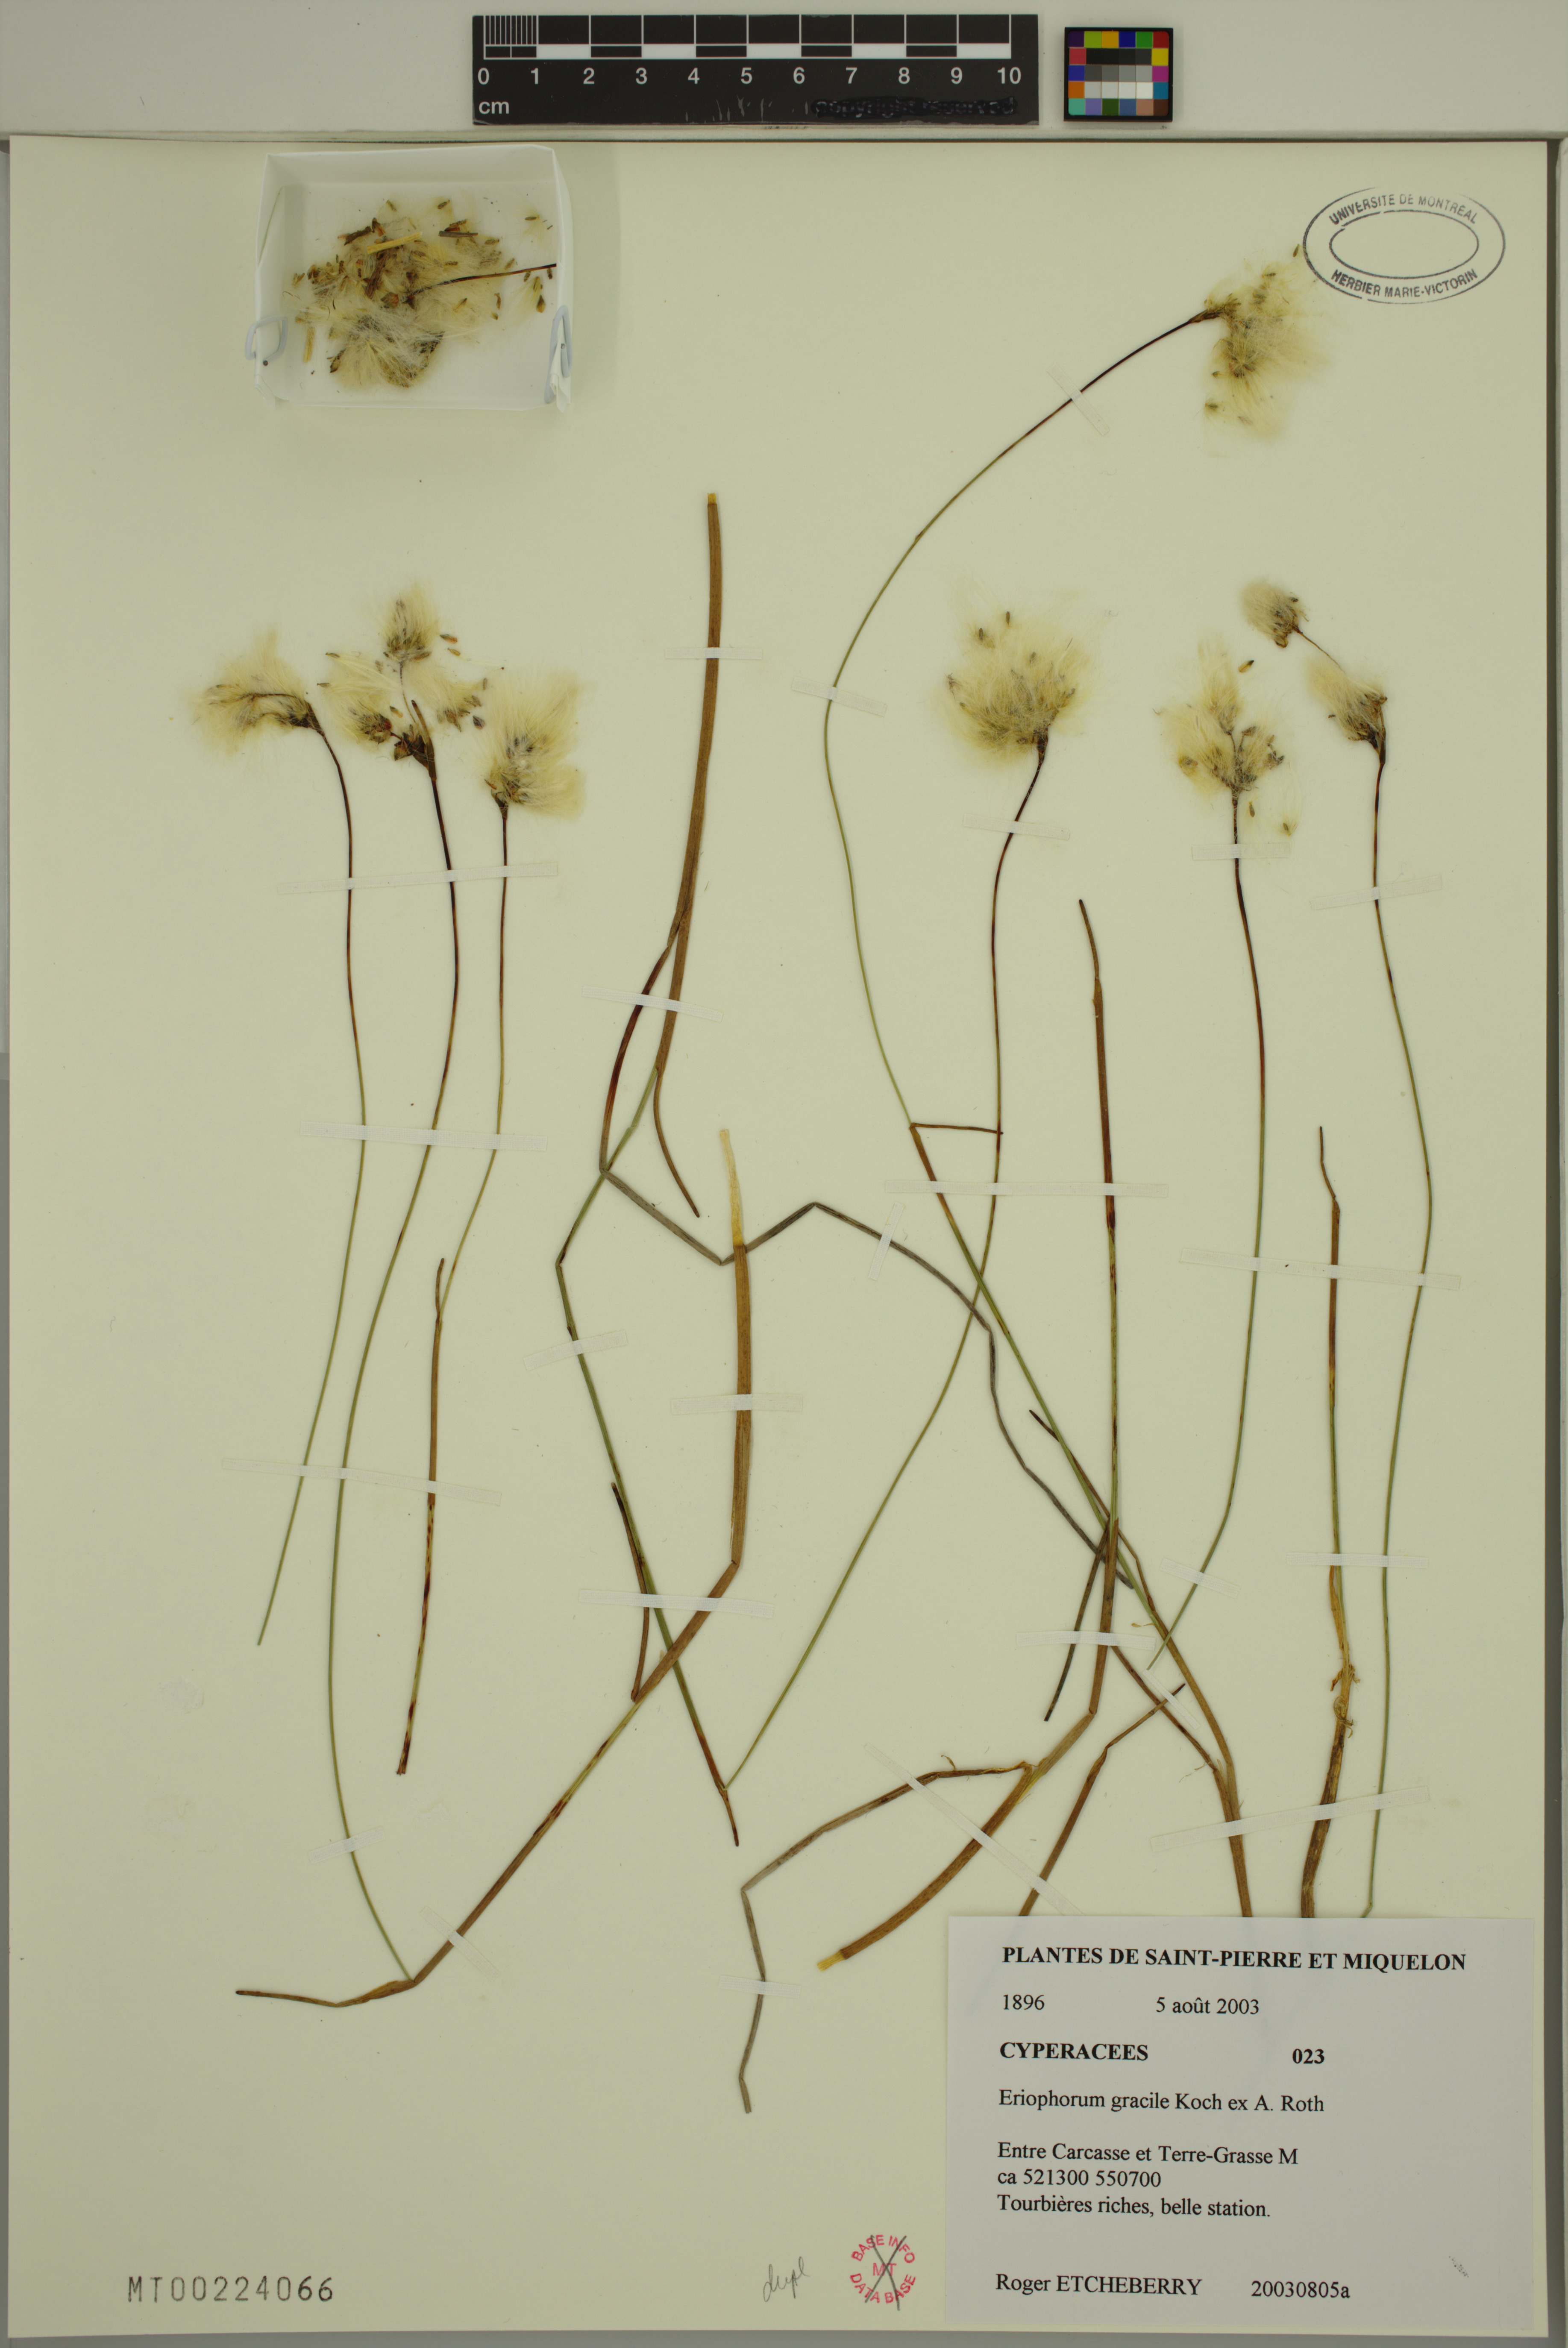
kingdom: Plantae
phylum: Tracheophyta
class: Liliopsida
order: Poales
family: Cyperaceae
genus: Eriophorum
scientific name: Eriophorum gracile
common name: Slender cottongrass
